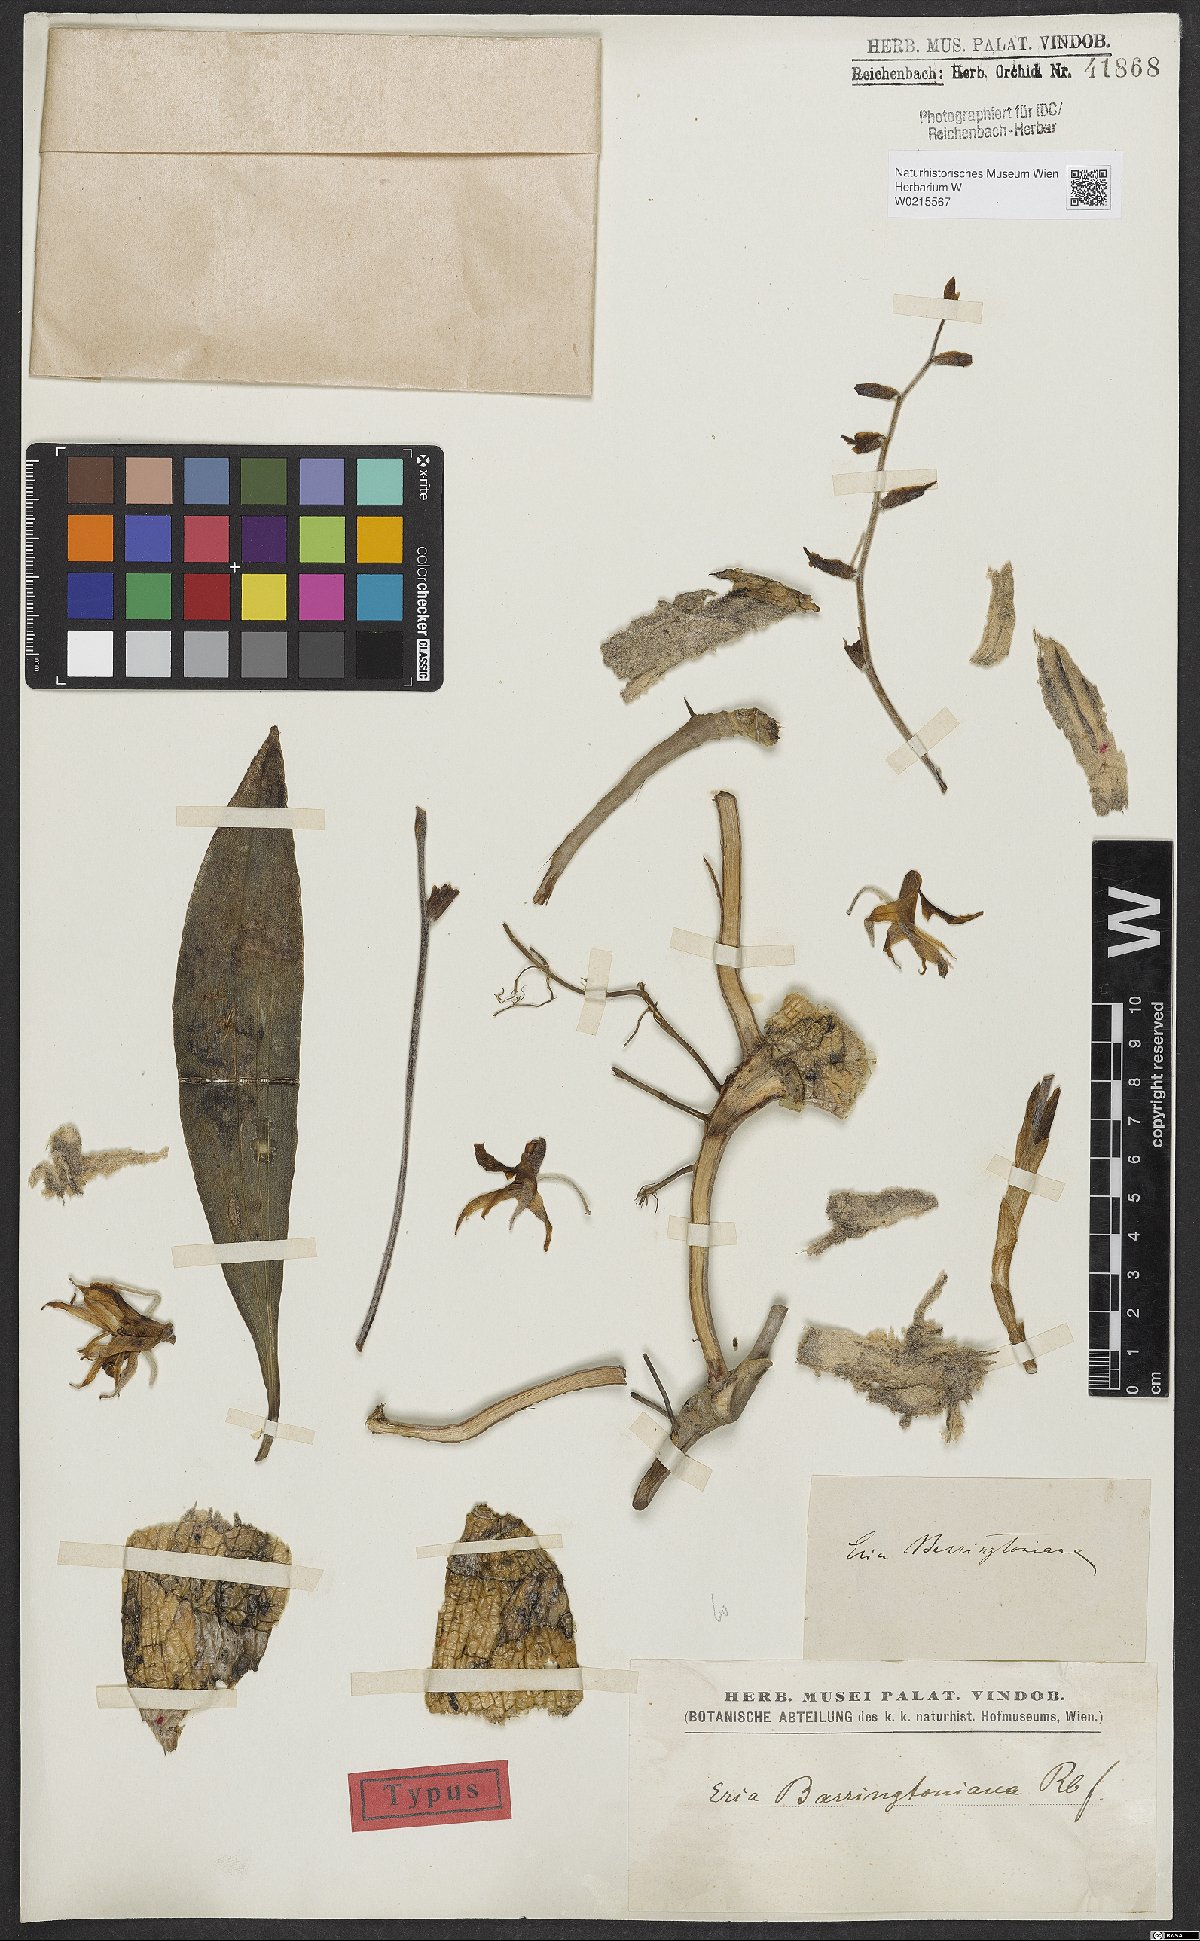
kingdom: Plantae
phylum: Tracheophyta
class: Liliopsida
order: Asparagales
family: Orchidaceae
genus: Eria
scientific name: Eria berringtoniana
